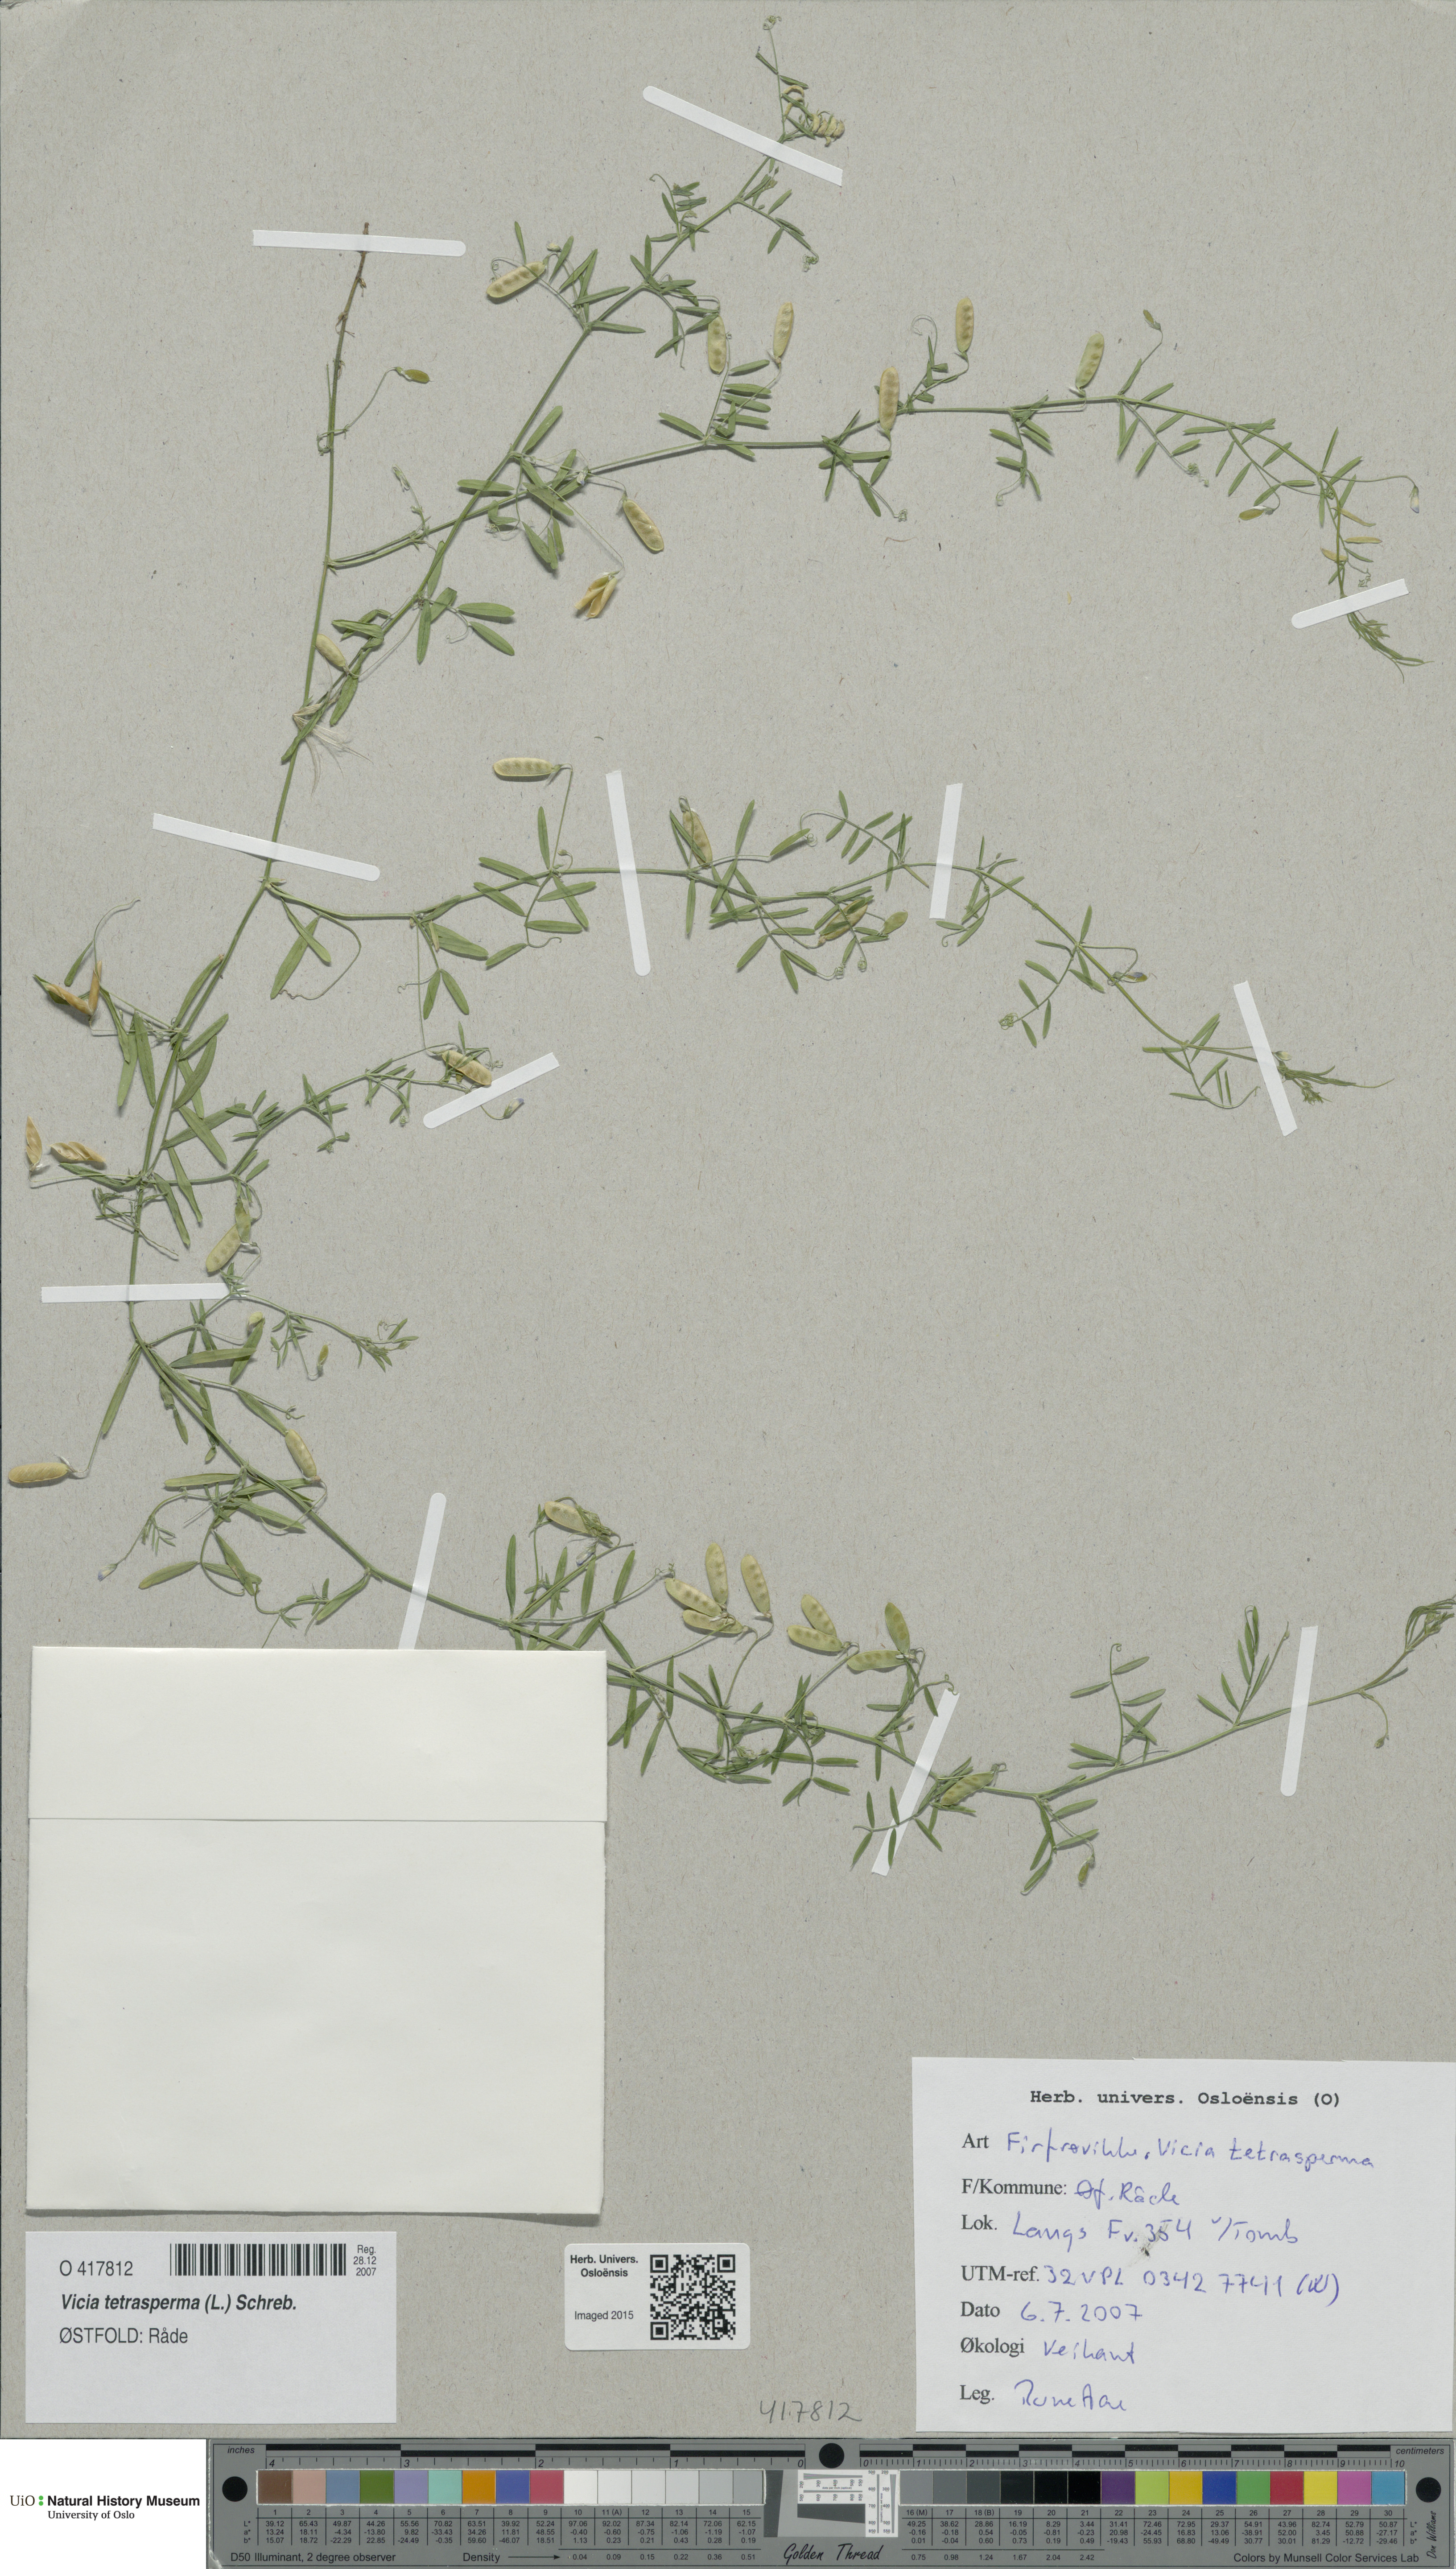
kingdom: Plantae
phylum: Tracheophyta
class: Magnoliopsida
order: Fabales
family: Fabaceae
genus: Vicia
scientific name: Vicia tetrasperma
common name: Smooth tare
